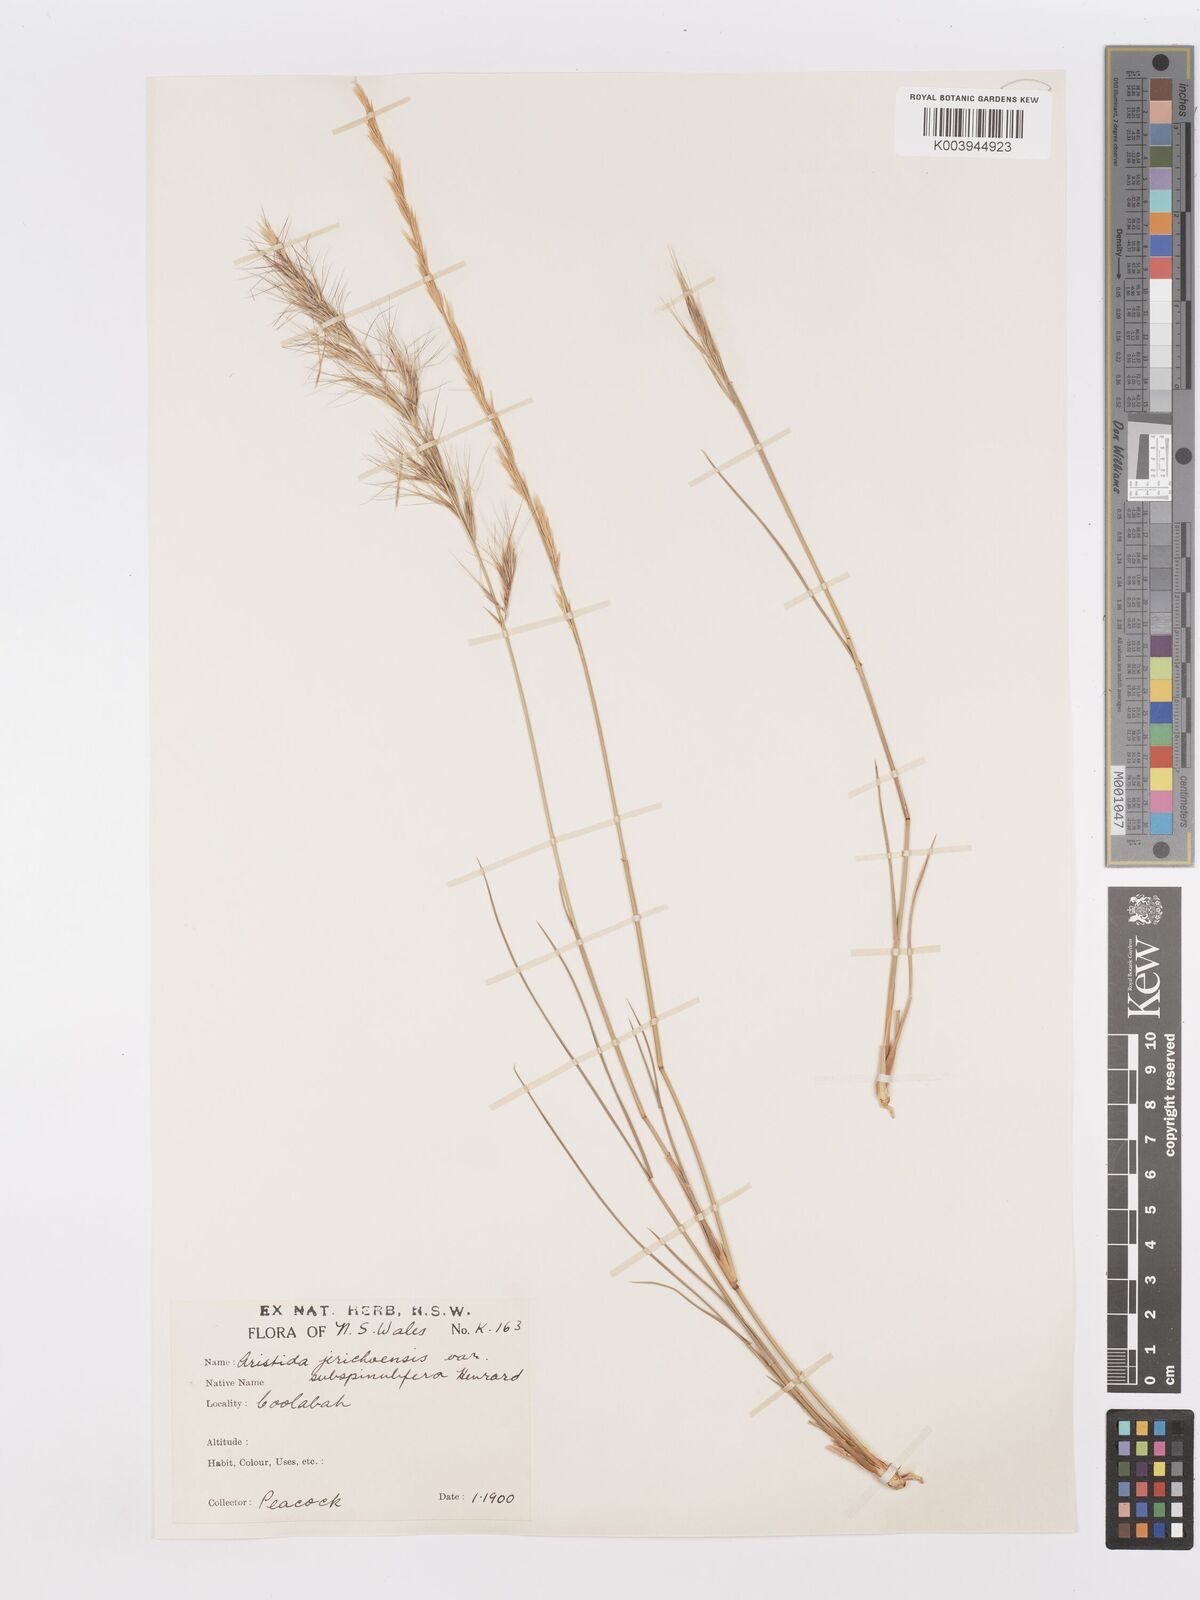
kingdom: Plantae
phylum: Tracheophyta
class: Liliopsida
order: Poales
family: Poaceae
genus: Aristida
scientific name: Aristida jerichoensis
